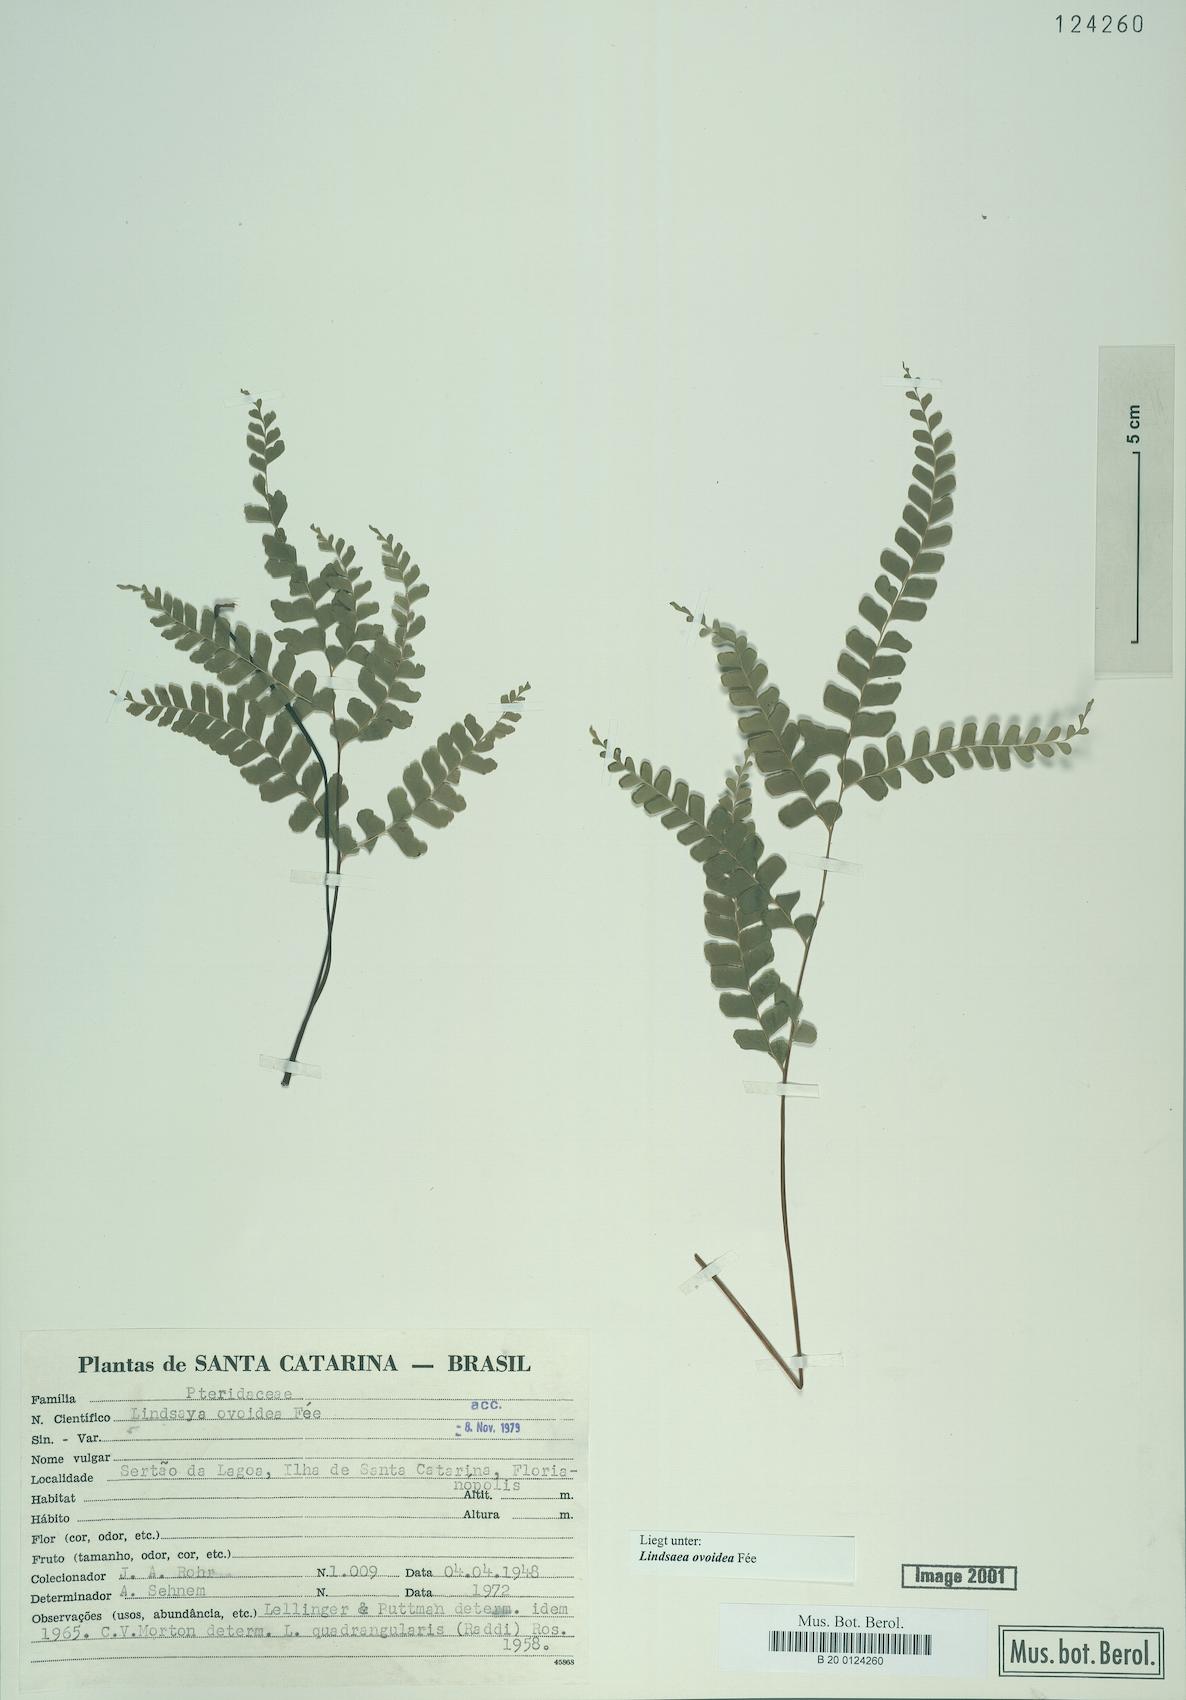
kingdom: Plantae
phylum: Tracheophyta
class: Polypodiopsida
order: Polypodiales
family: Lindsaeaceae
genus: Lindsaea
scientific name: Lindsaea ovoidea
